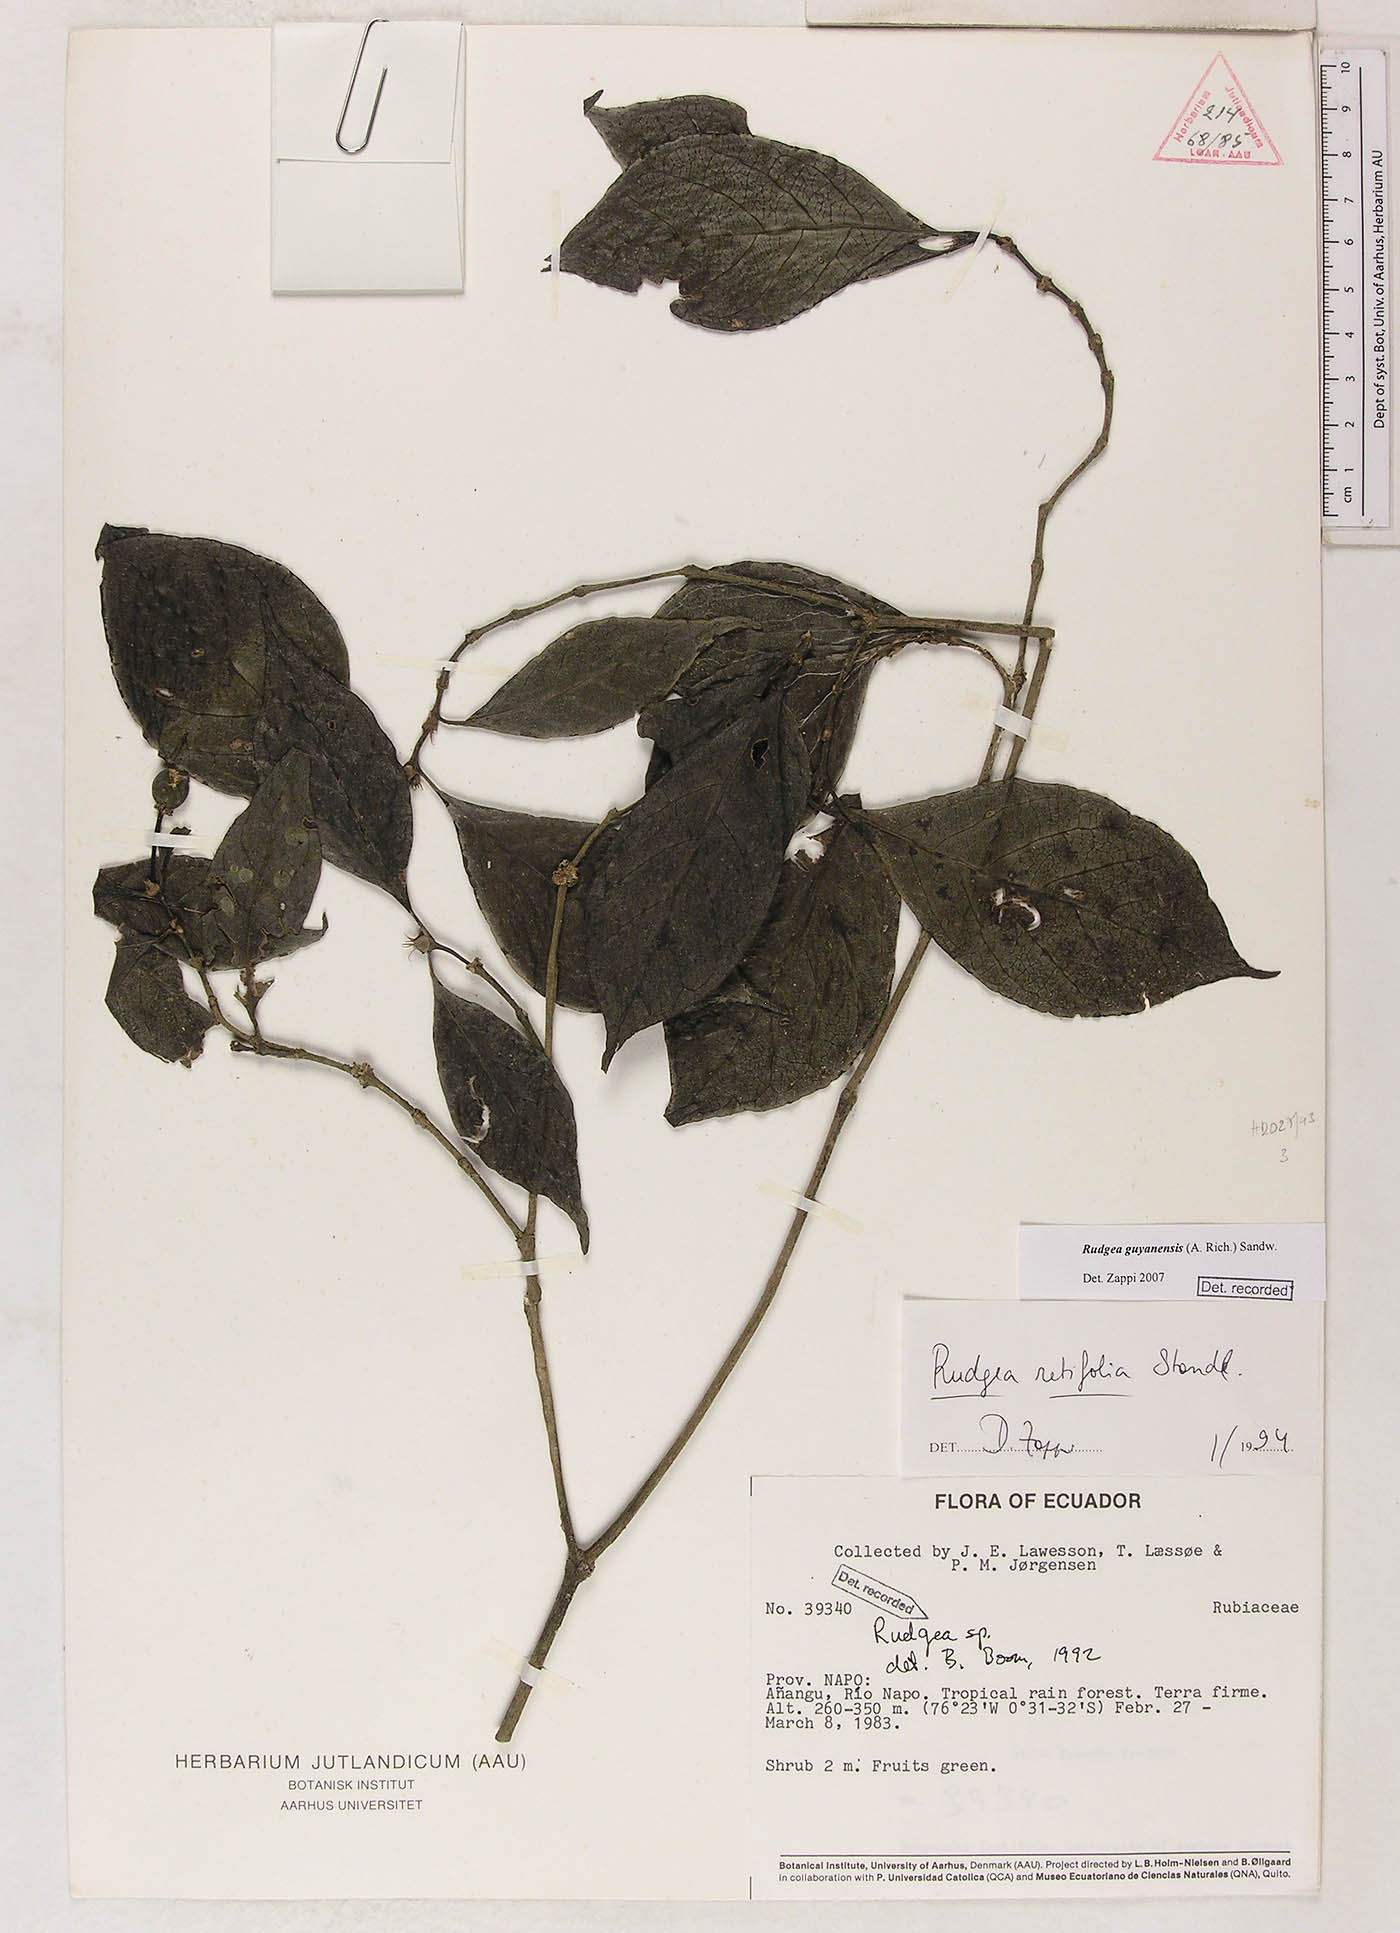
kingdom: Plantae
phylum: Tracheophyta
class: Magnoliopsida
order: Gentianales
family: Rubiaceae
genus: Rudgea
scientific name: Rudgea guianensis
